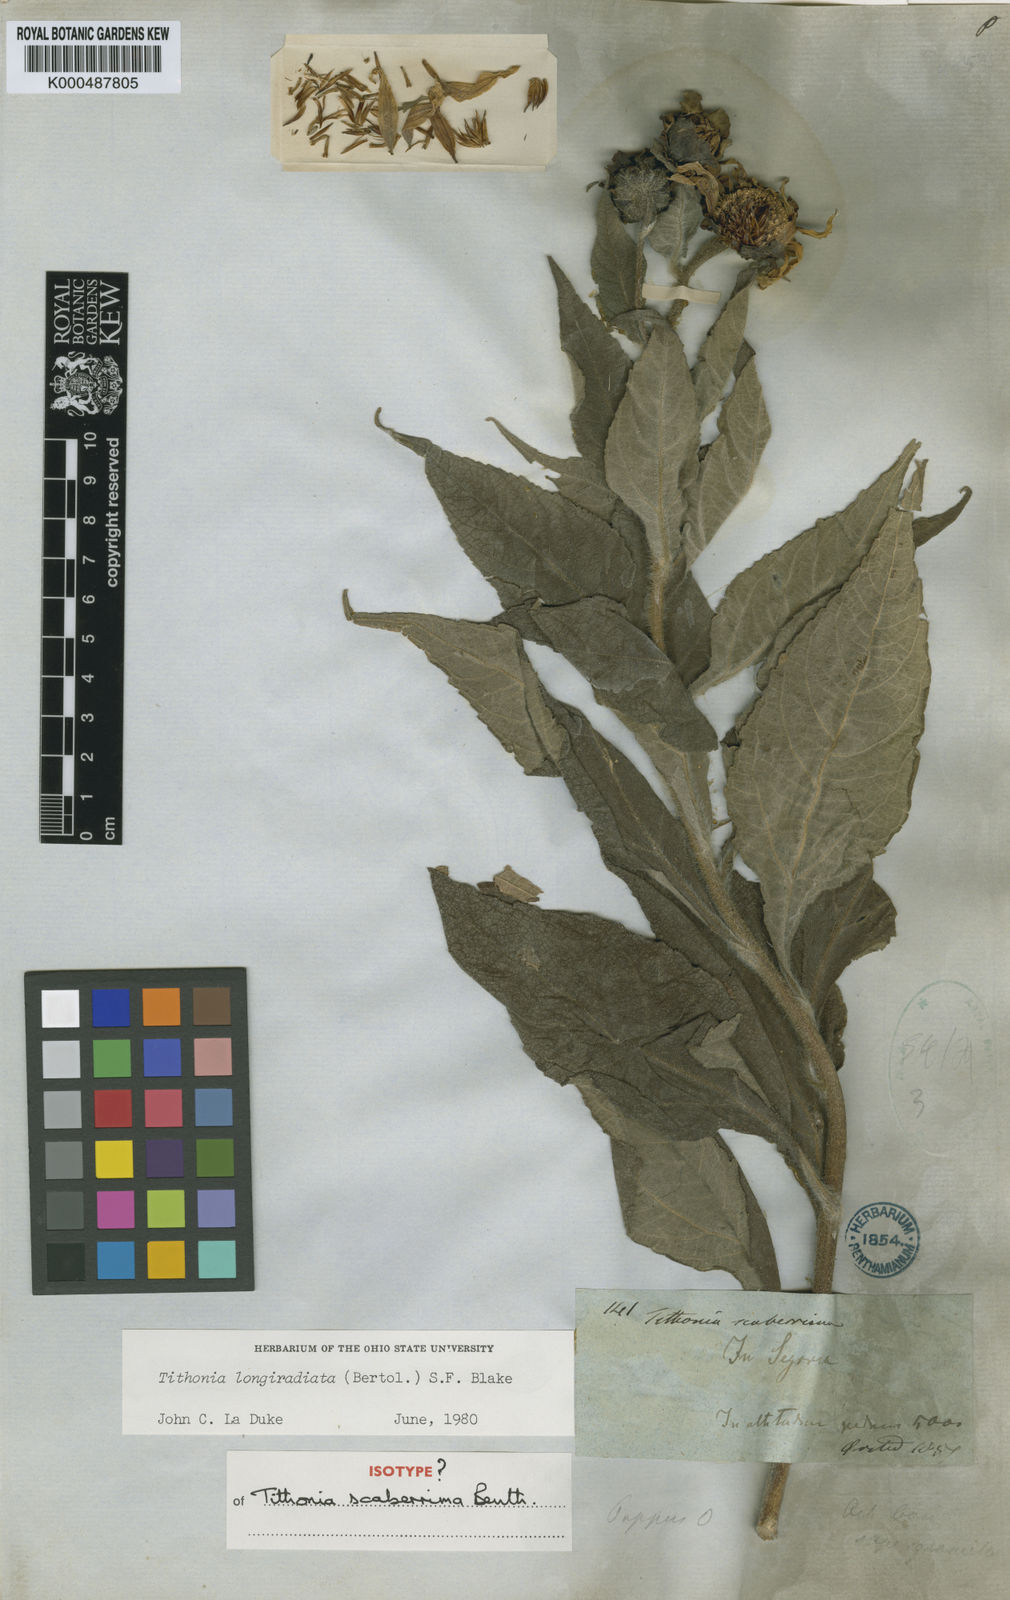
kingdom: Plantae
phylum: Tracheophyta
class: Magnoliopsida
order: Asterales
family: Asteraceae
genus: Tithonia
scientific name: Tithonia
